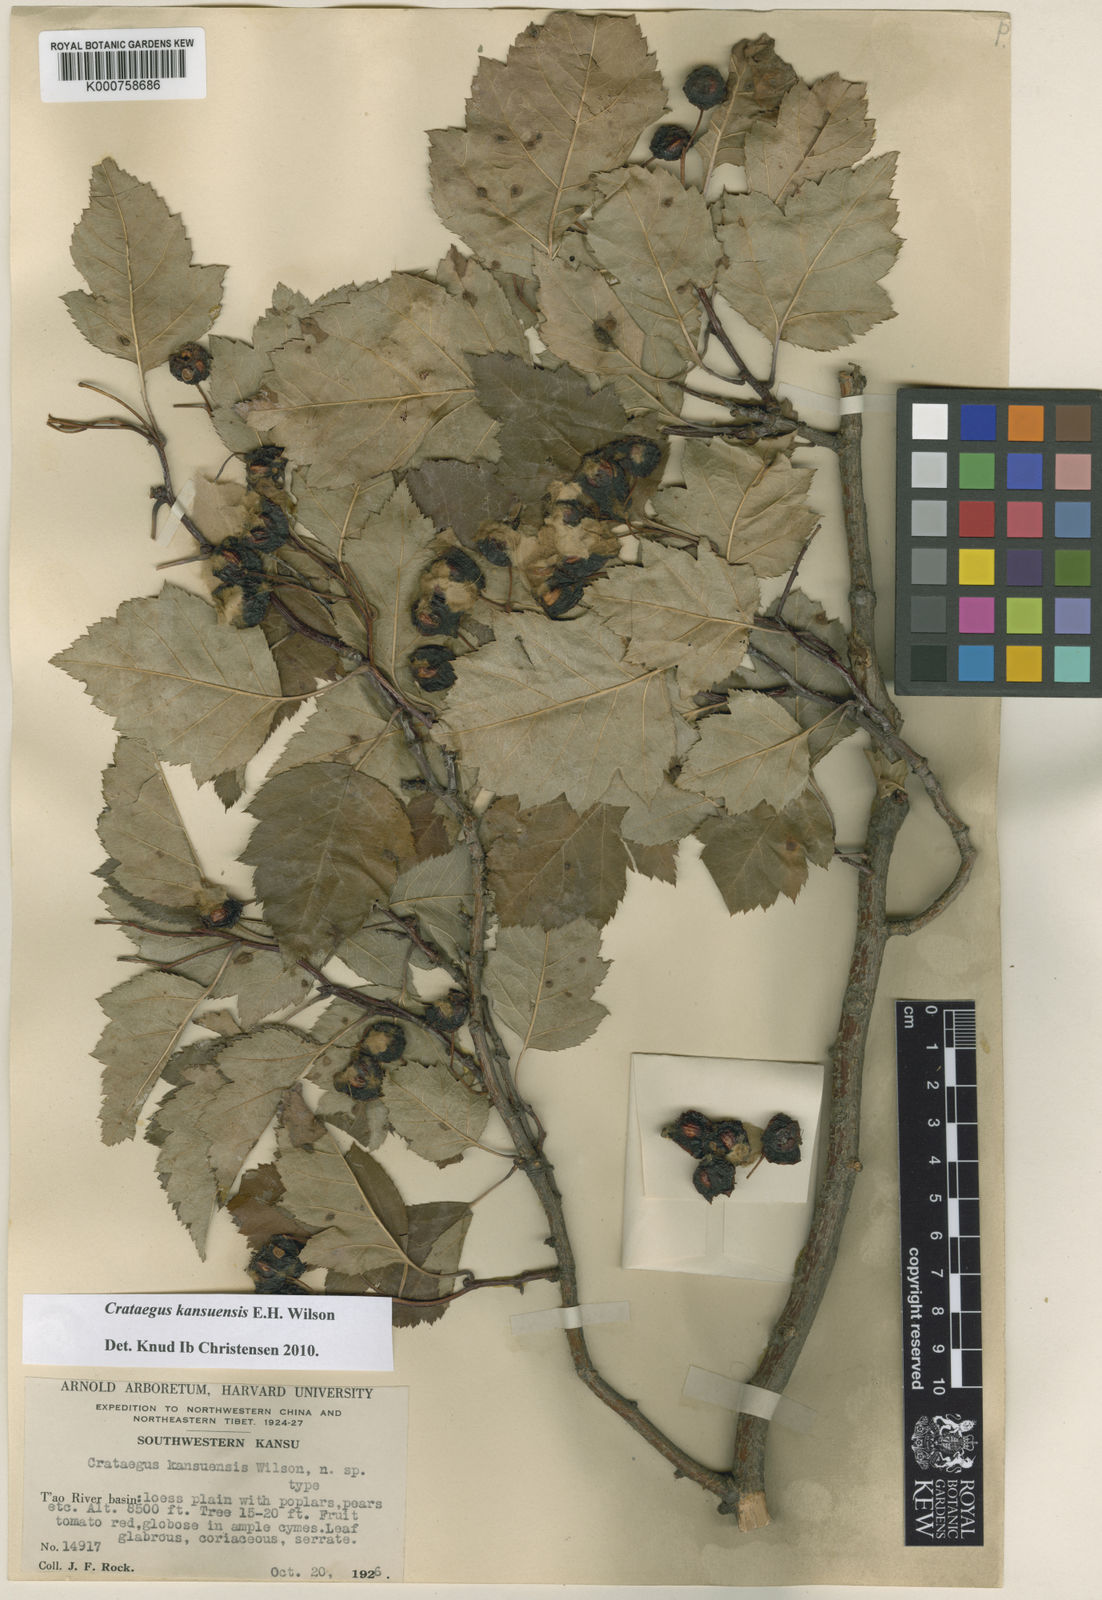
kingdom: Plantae
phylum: Tracheophyta
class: Magnoliopsida
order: Rosales
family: Rosaceae
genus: Crataegus
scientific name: Crataegus kansuensis
